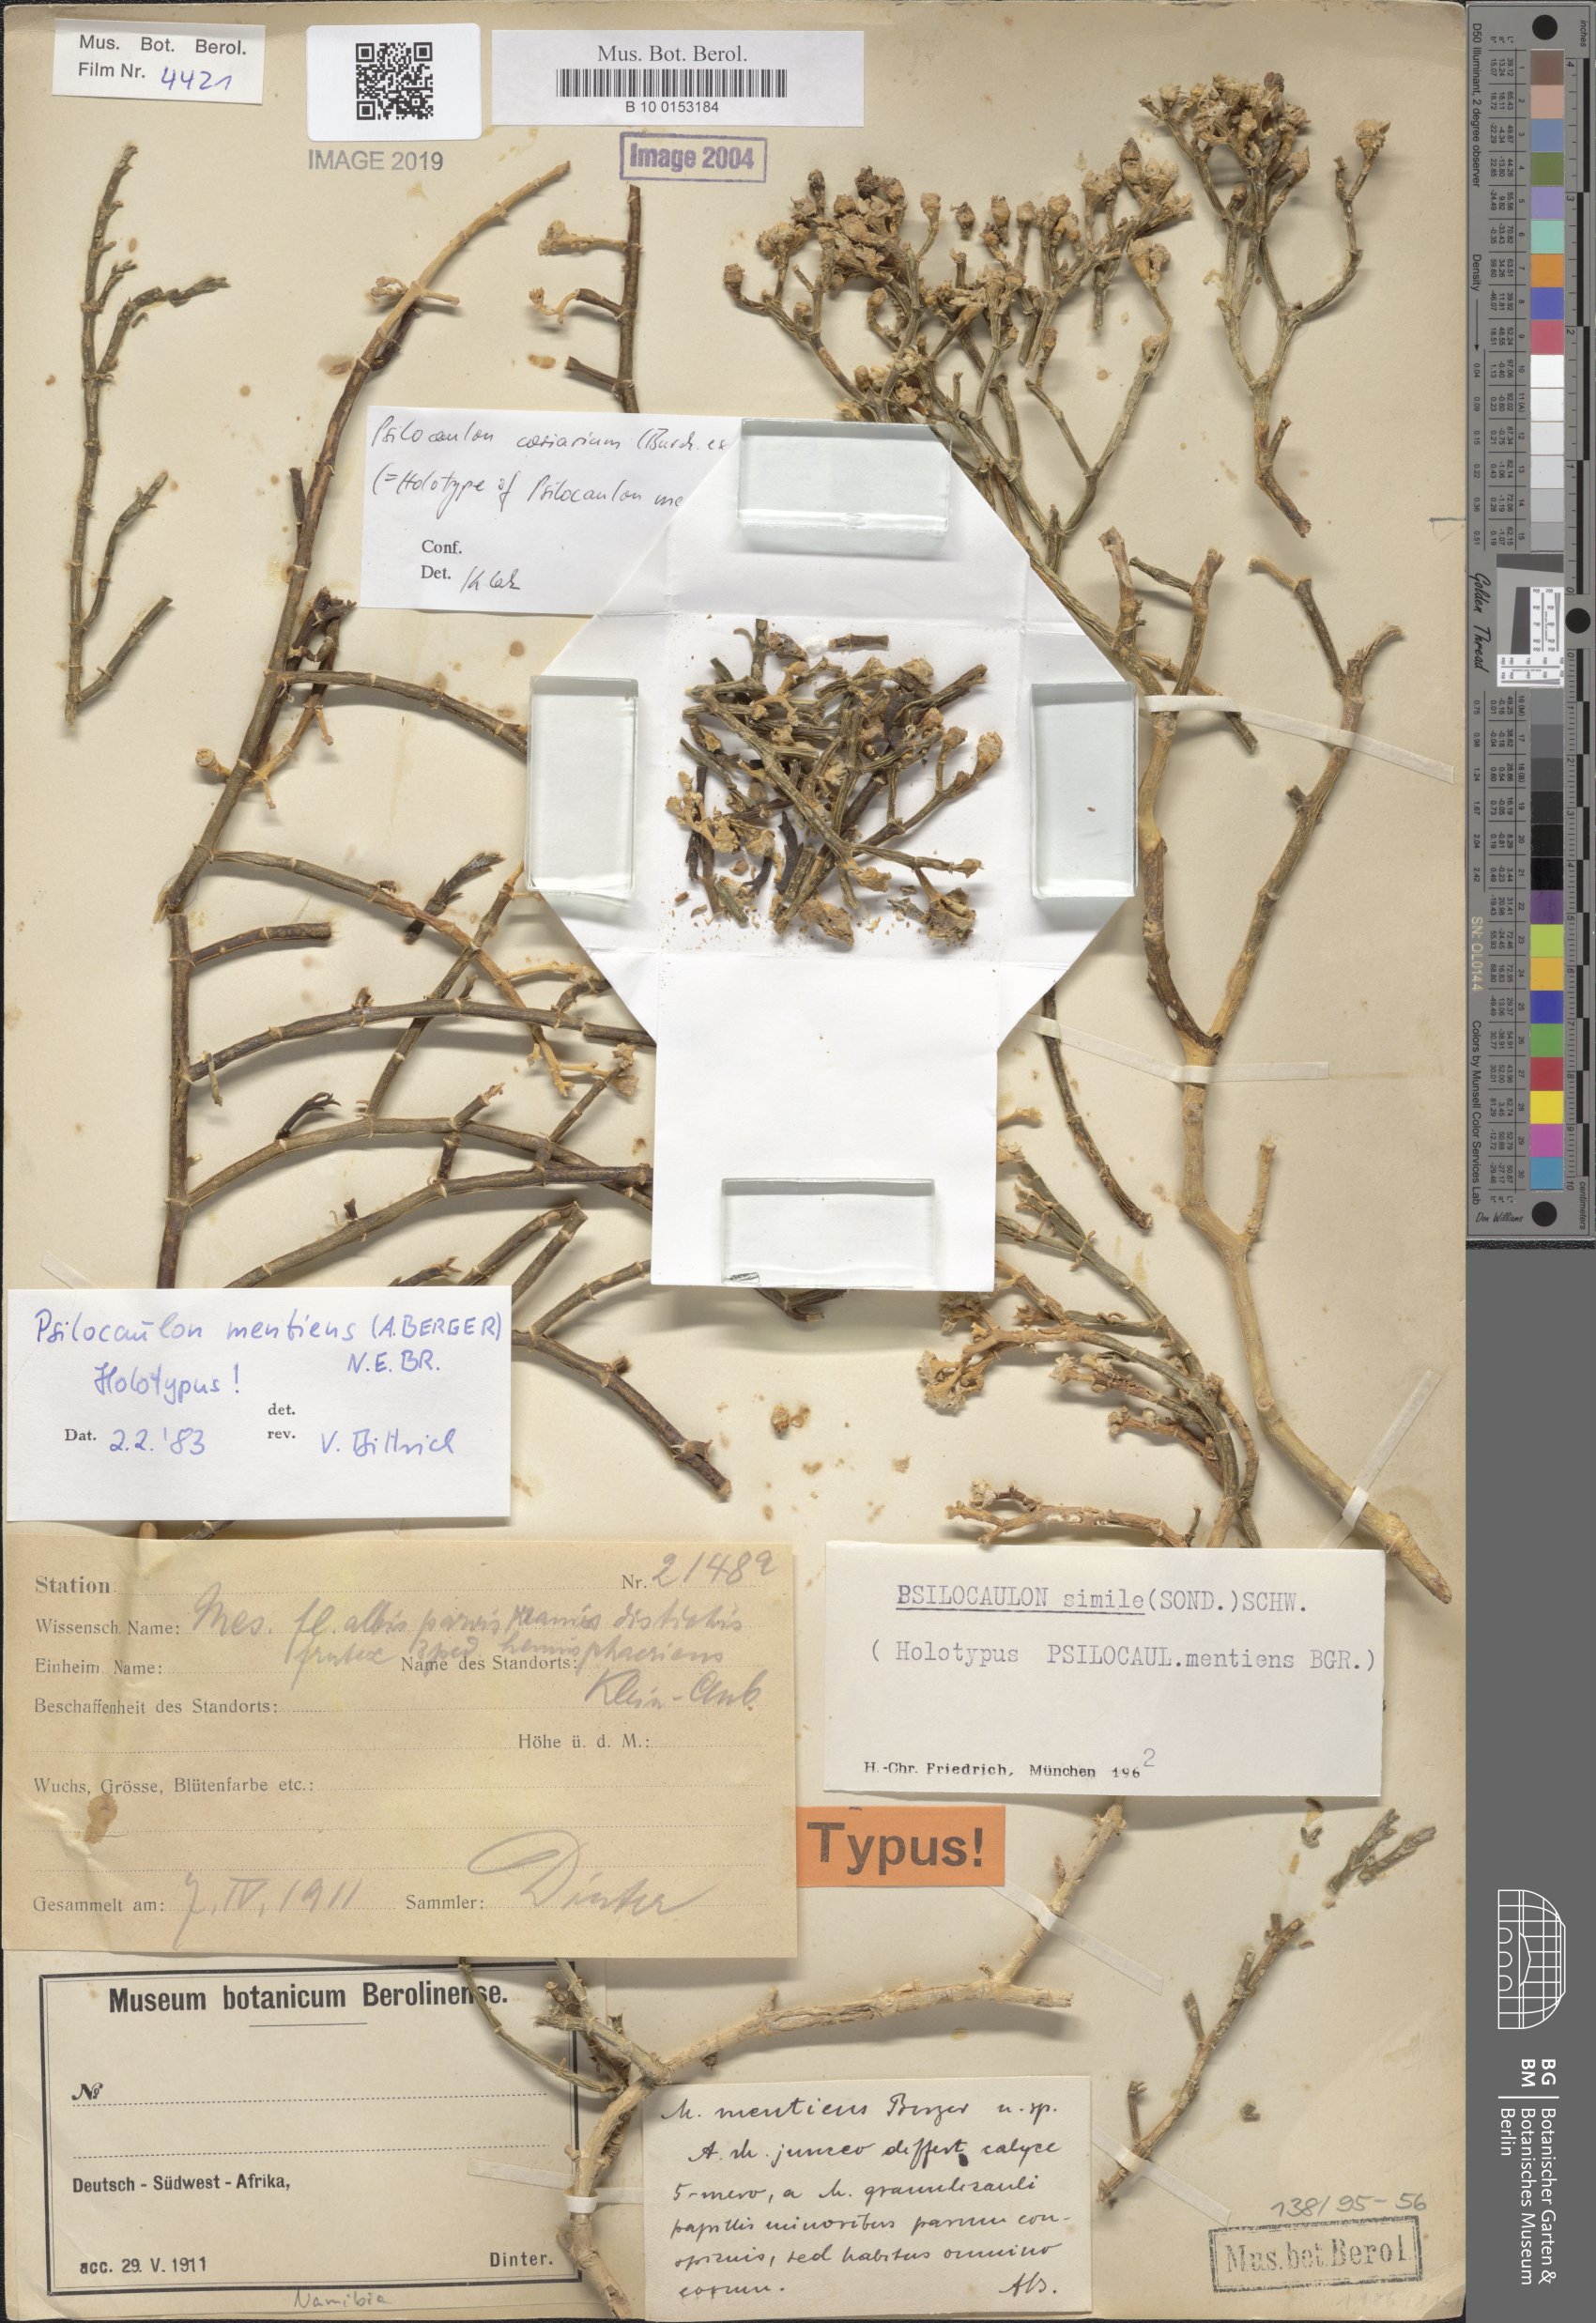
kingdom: Plantae
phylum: Tracheophyta
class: Magnoliopsida
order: Caryophyllales
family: Aizoaceae
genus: Mesembryanthemum
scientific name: Mesembryanthemum coriarium
